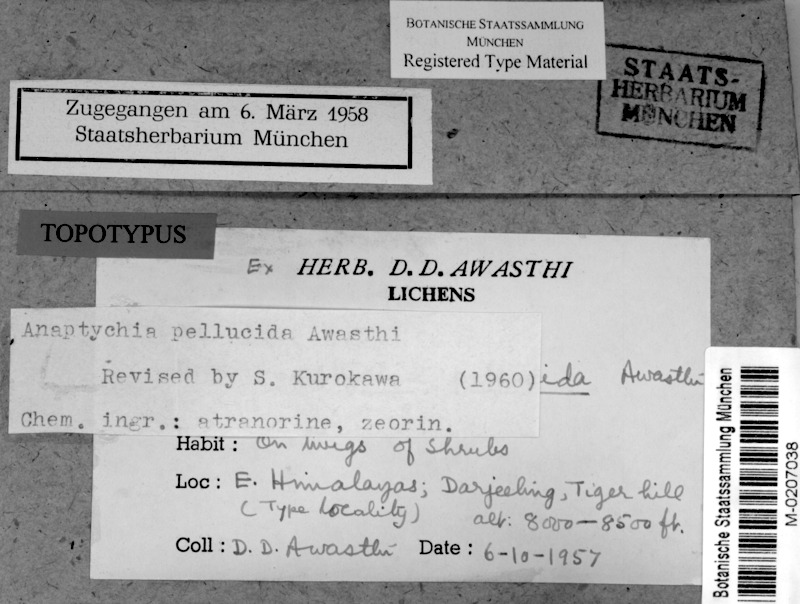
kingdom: Fungi
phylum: Ascomycota
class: Lecanoromycetes
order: Caliciales
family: Physciaceae
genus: Heterodermia
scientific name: Heterodermia pellucida
